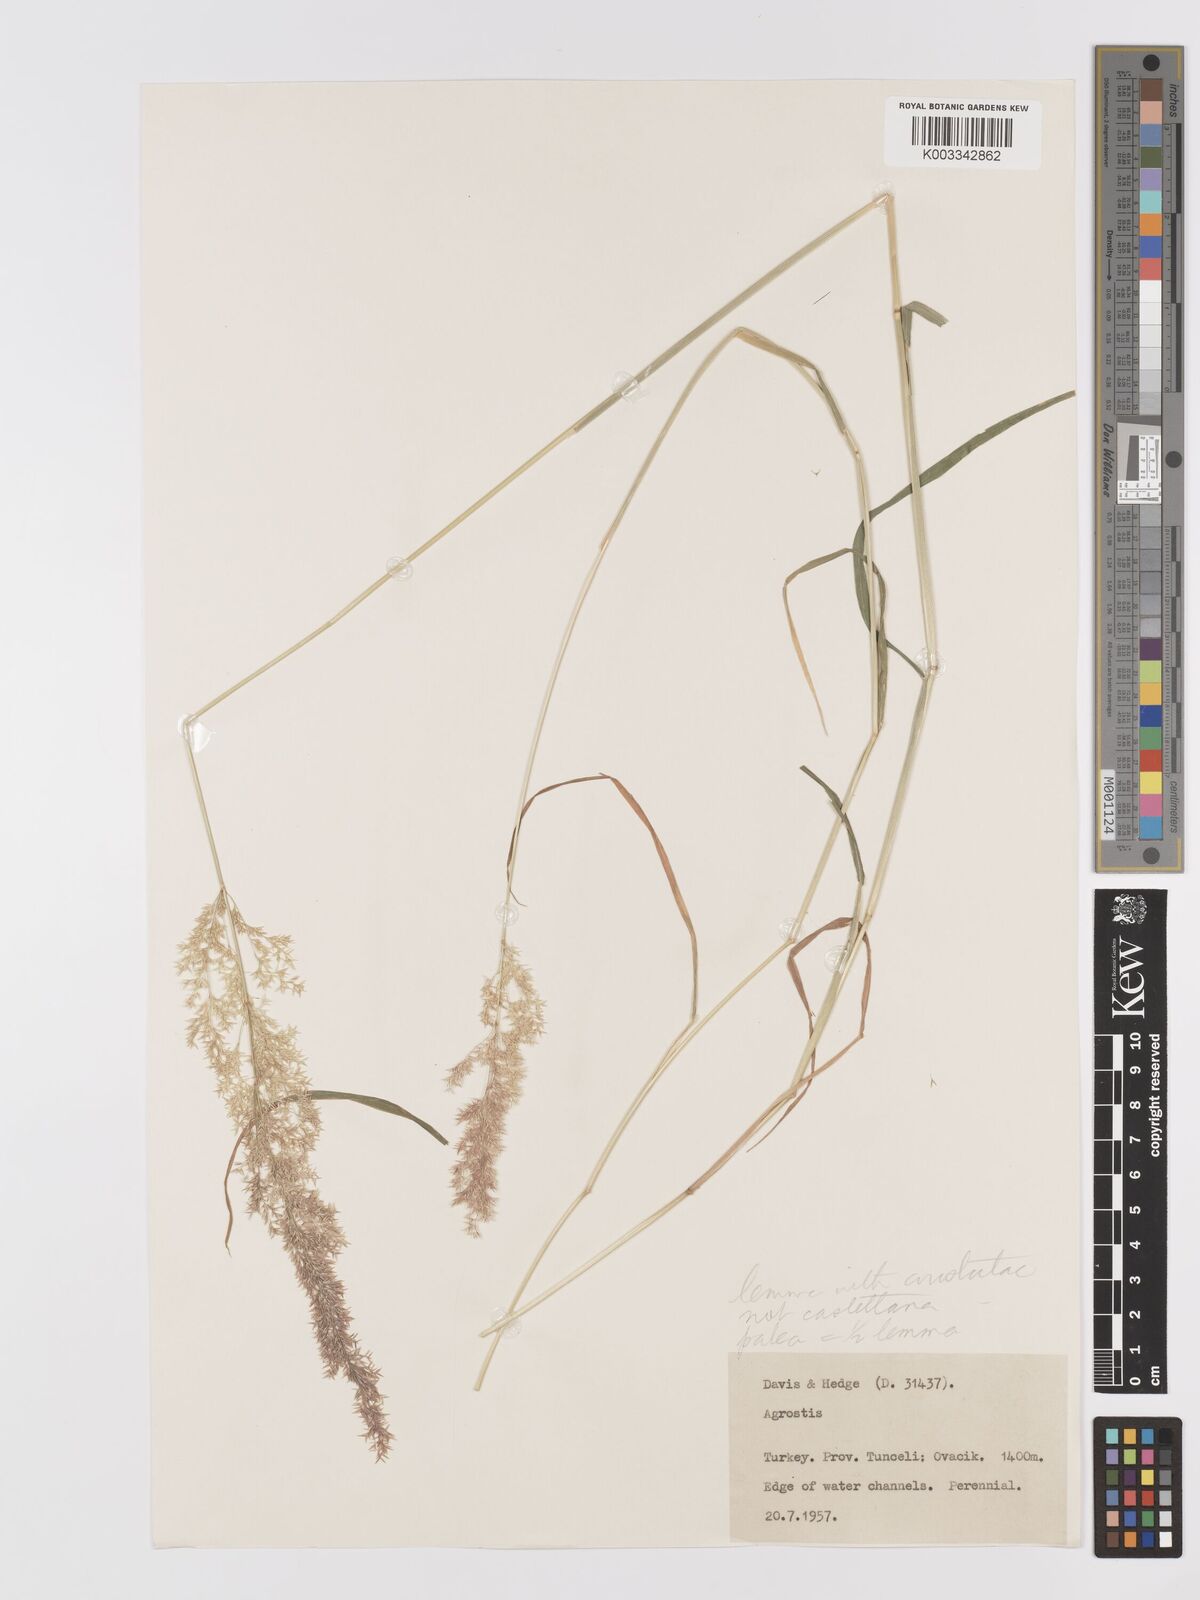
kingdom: Plantae
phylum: Tracheophyta
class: Liliopsida
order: Poales
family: Poaceae
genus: Agrostis
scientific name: Agrostis
